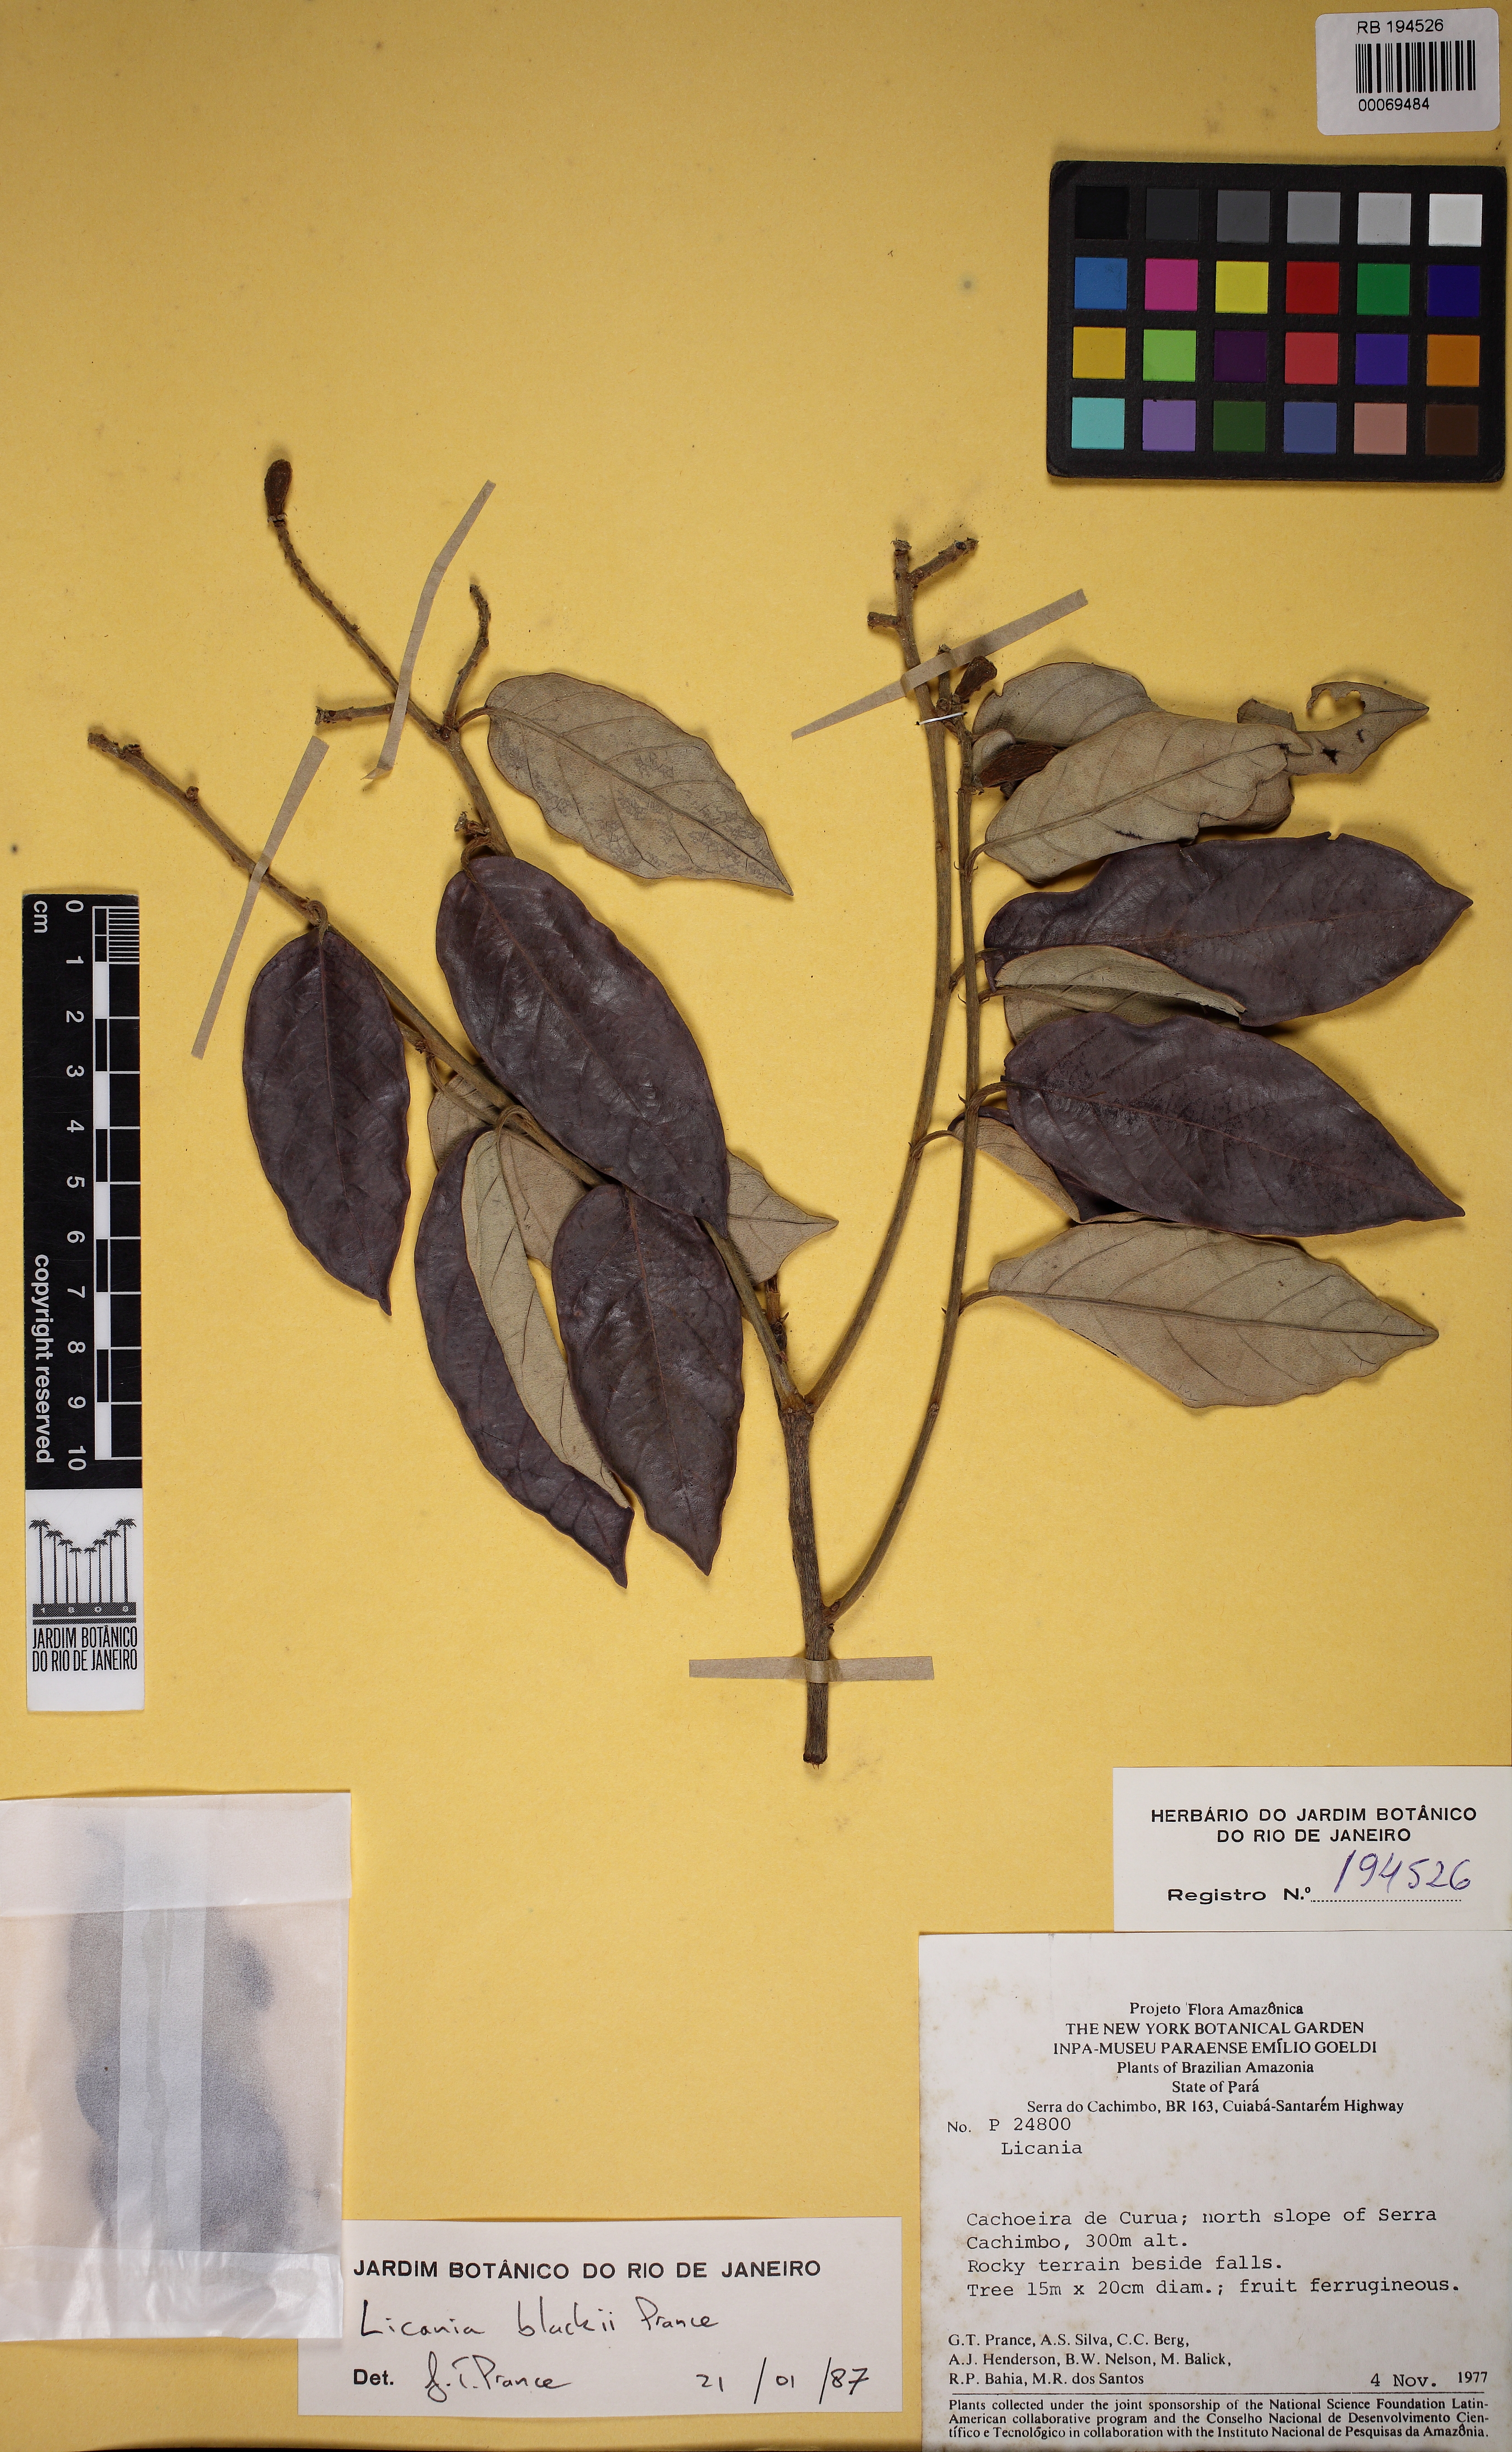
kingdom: Plantae
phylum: Tracheophyta
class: Magnoliopsida
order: Malpighiales
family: Chrysobalanaceae
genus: Licania
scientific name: Licania blackii
